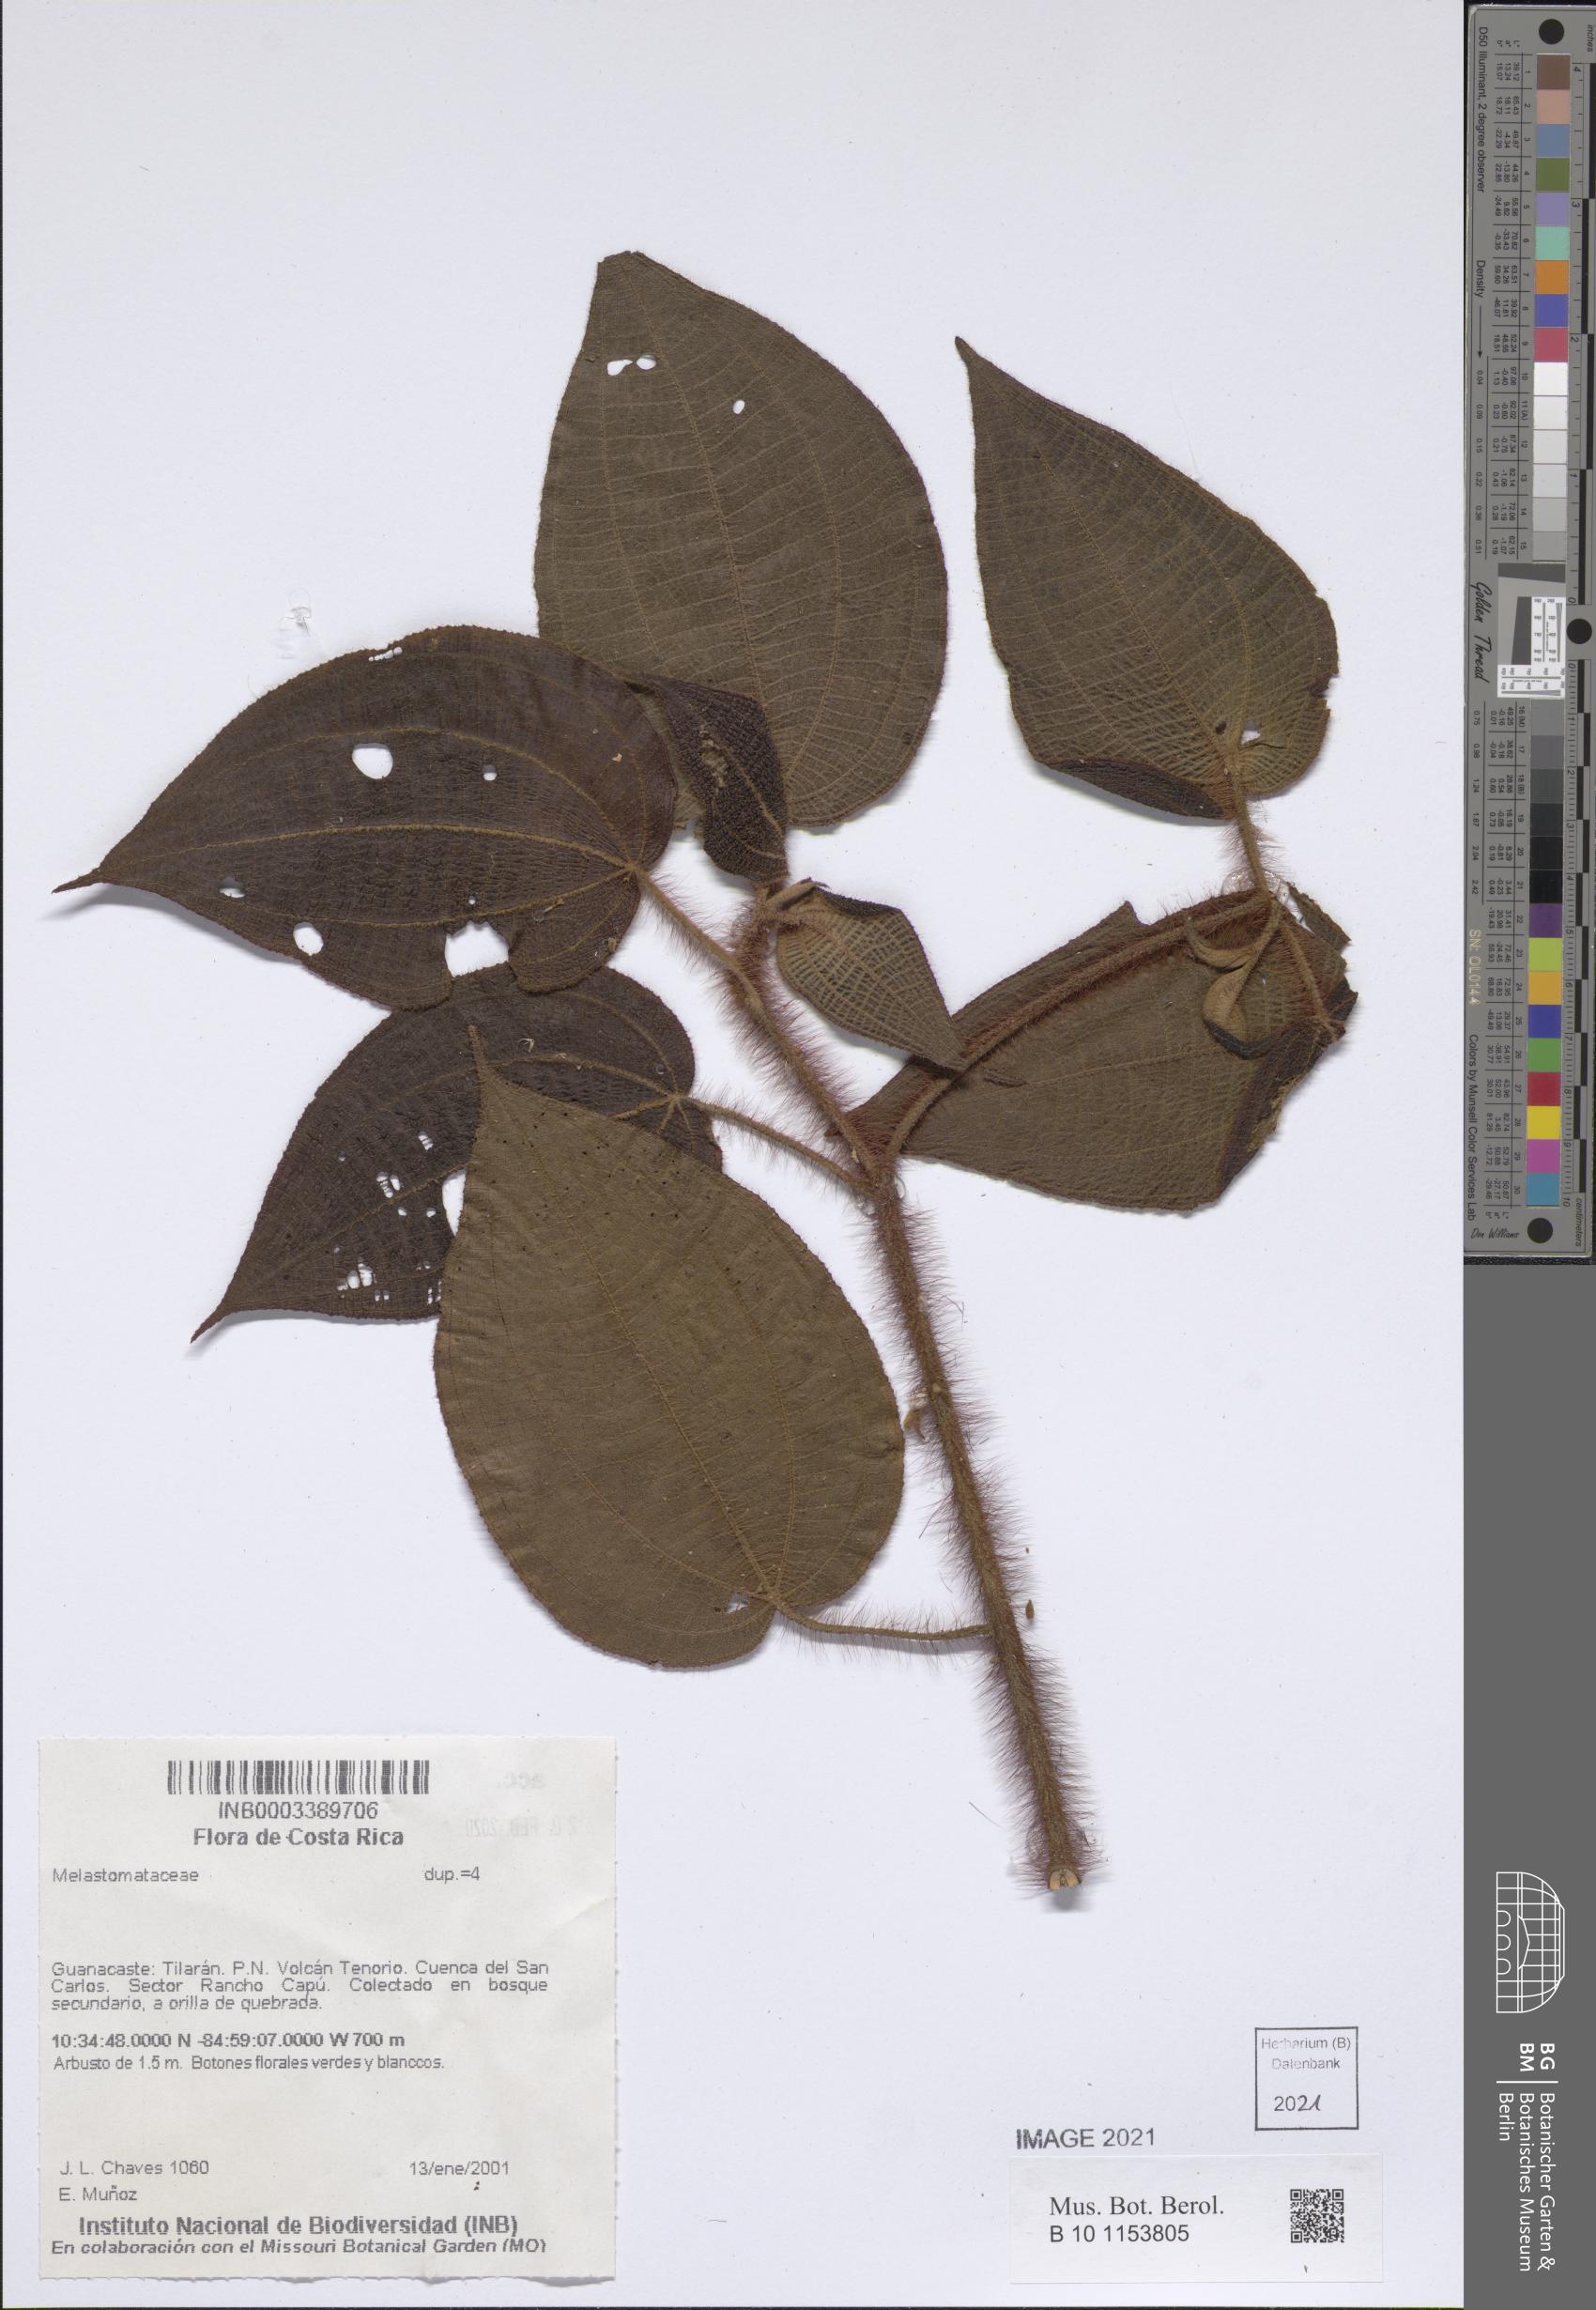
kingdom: Plantae
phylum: Tracheophyta
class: Magnoliopsida
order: Myrtales
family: Melastomataceae
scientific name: Melastomataceae
